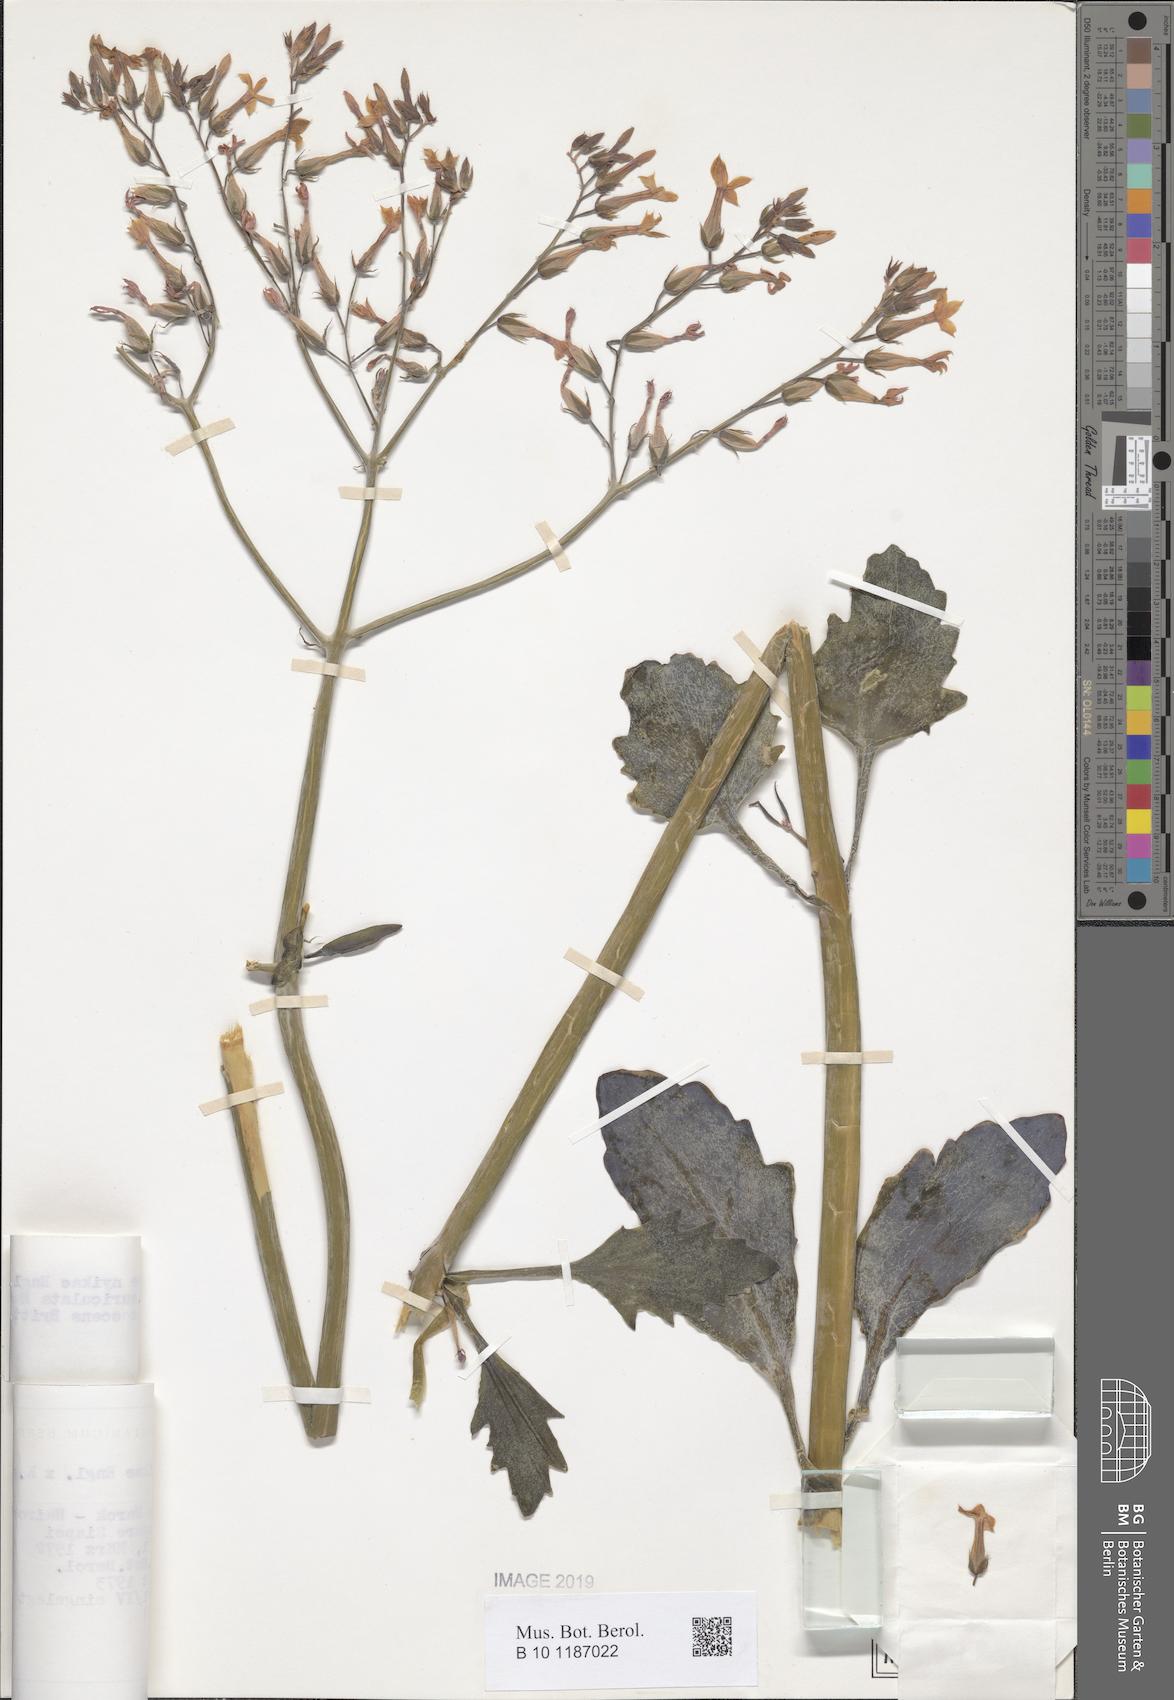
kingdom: Plantae
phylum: Tracheophyta
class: Magnoliopsida
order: Saxifragales
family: Crassulaceae
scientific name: Crassulaceae
